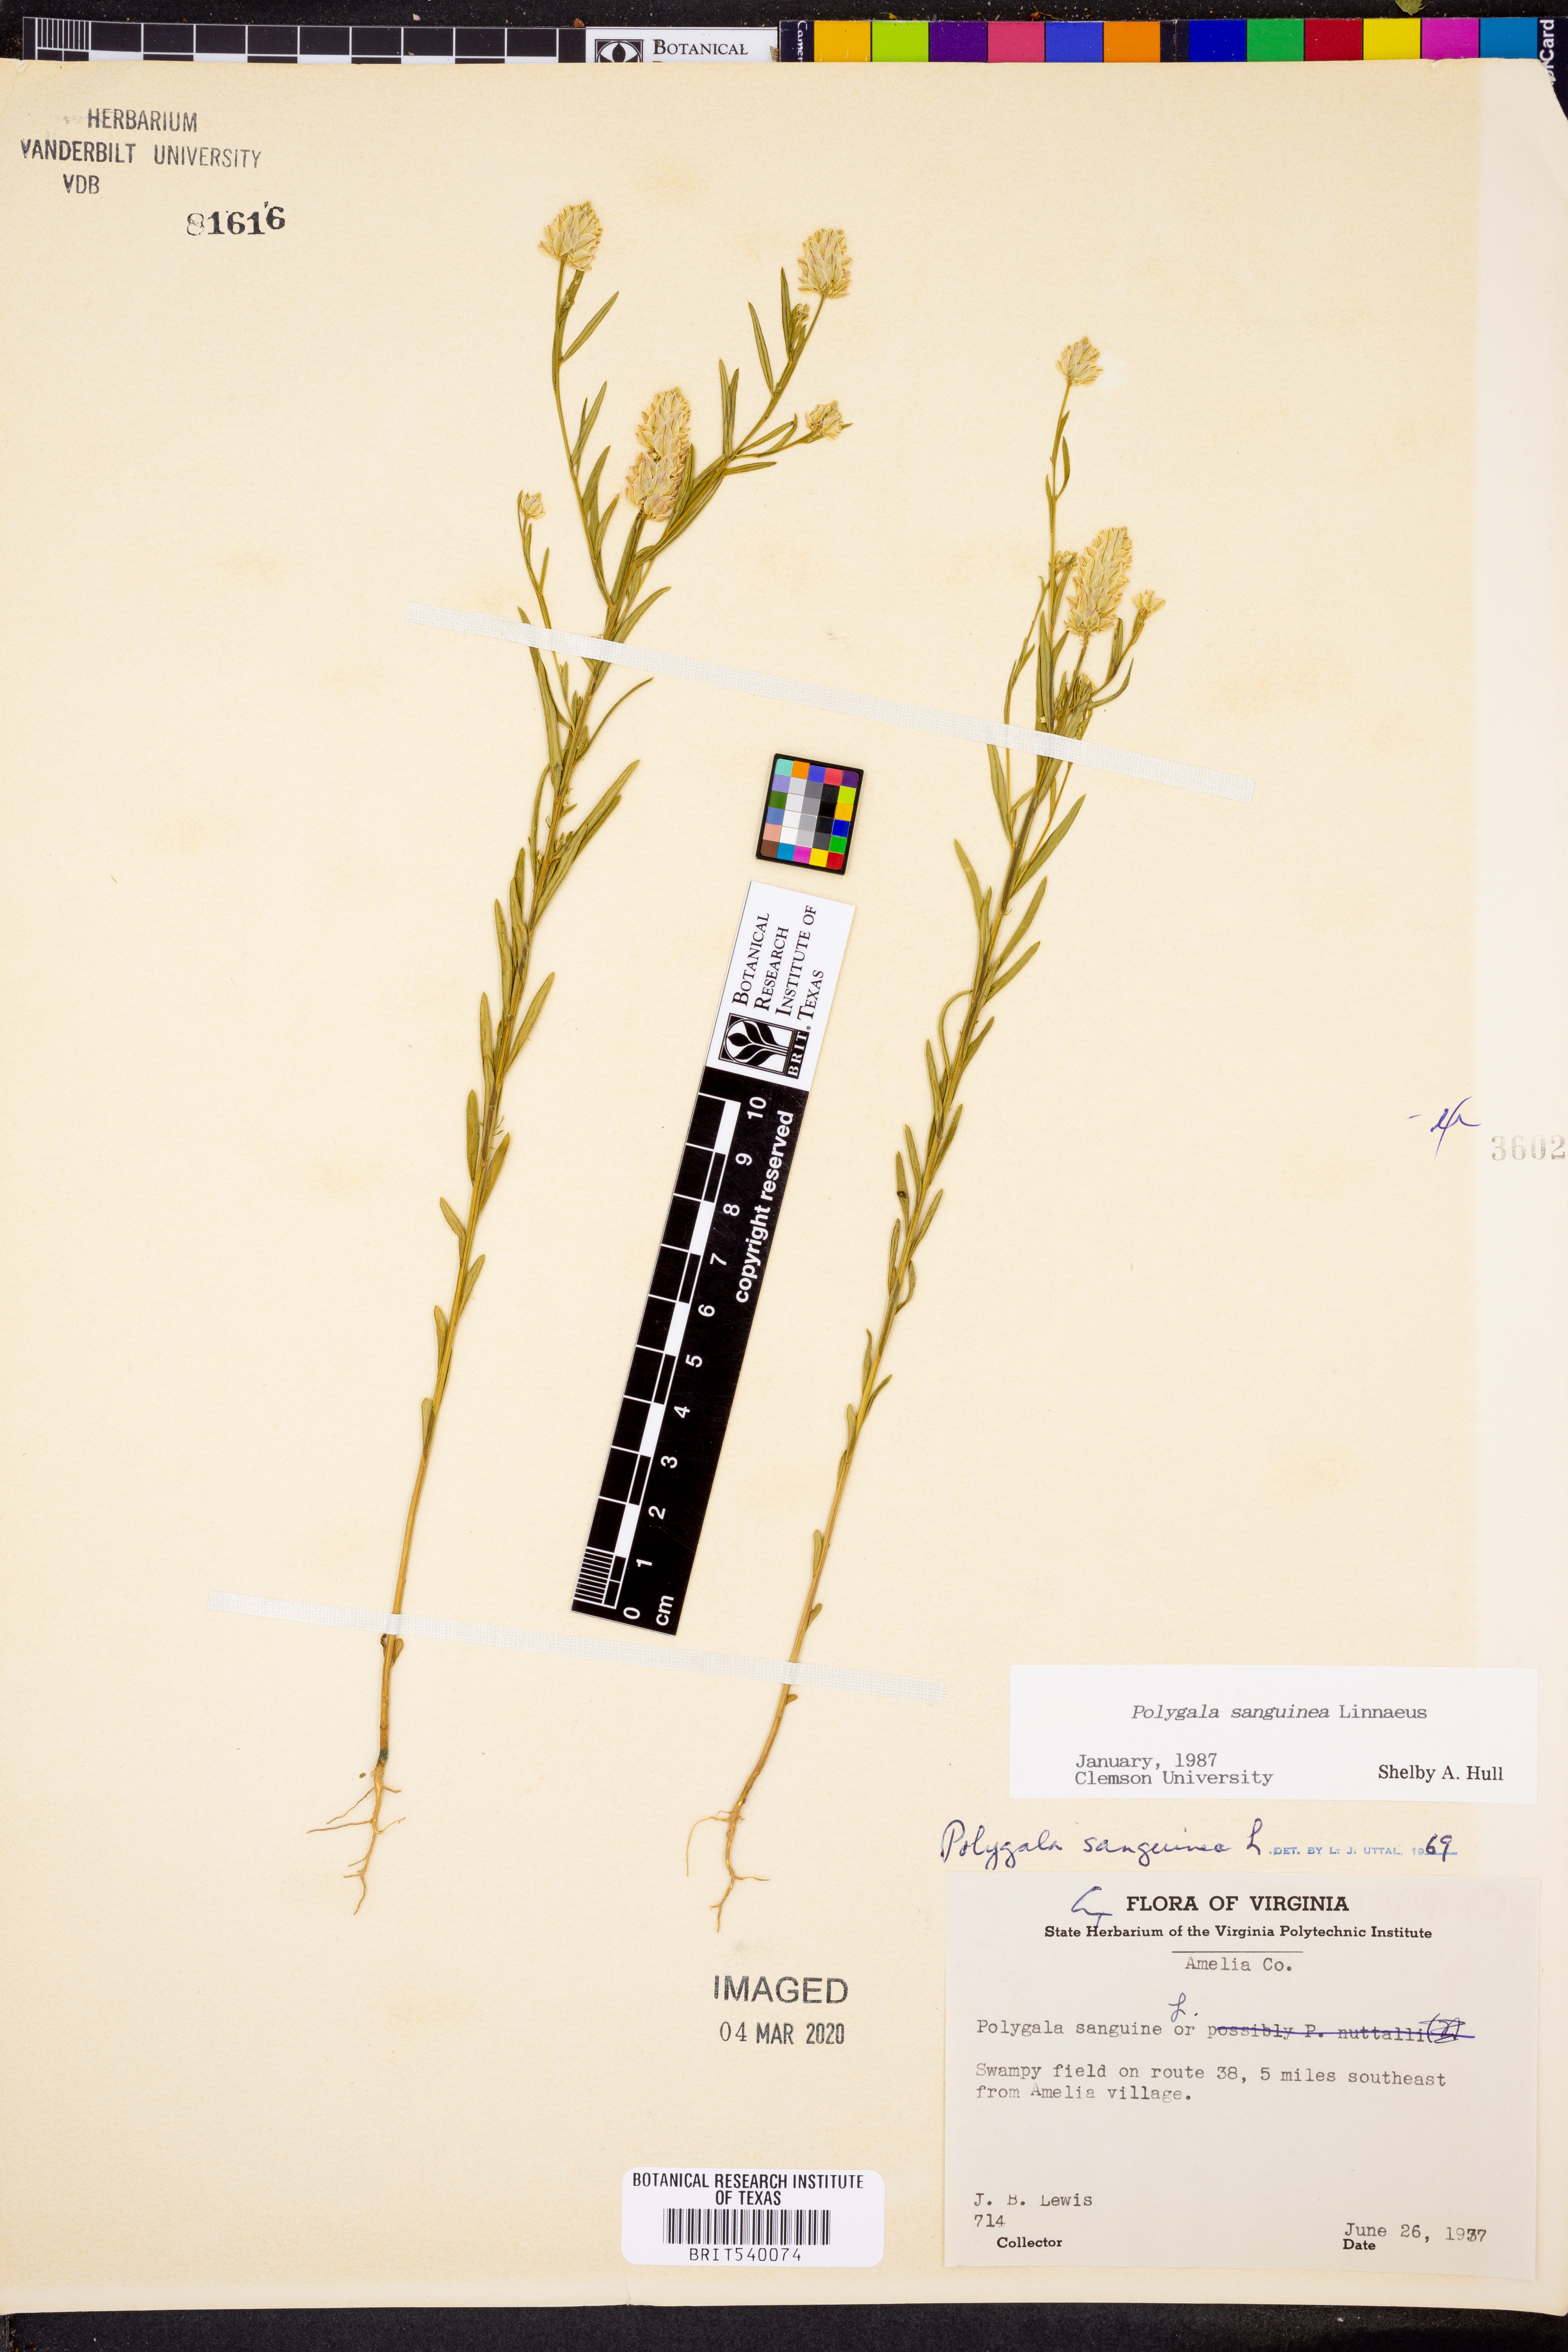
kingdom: Plantae
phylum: Tracheophyta
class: Magnoliopsida
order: Fabales
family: Polygalaceae
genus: Polygala
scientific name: Polygala sanguinea
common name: Blood milkwort
